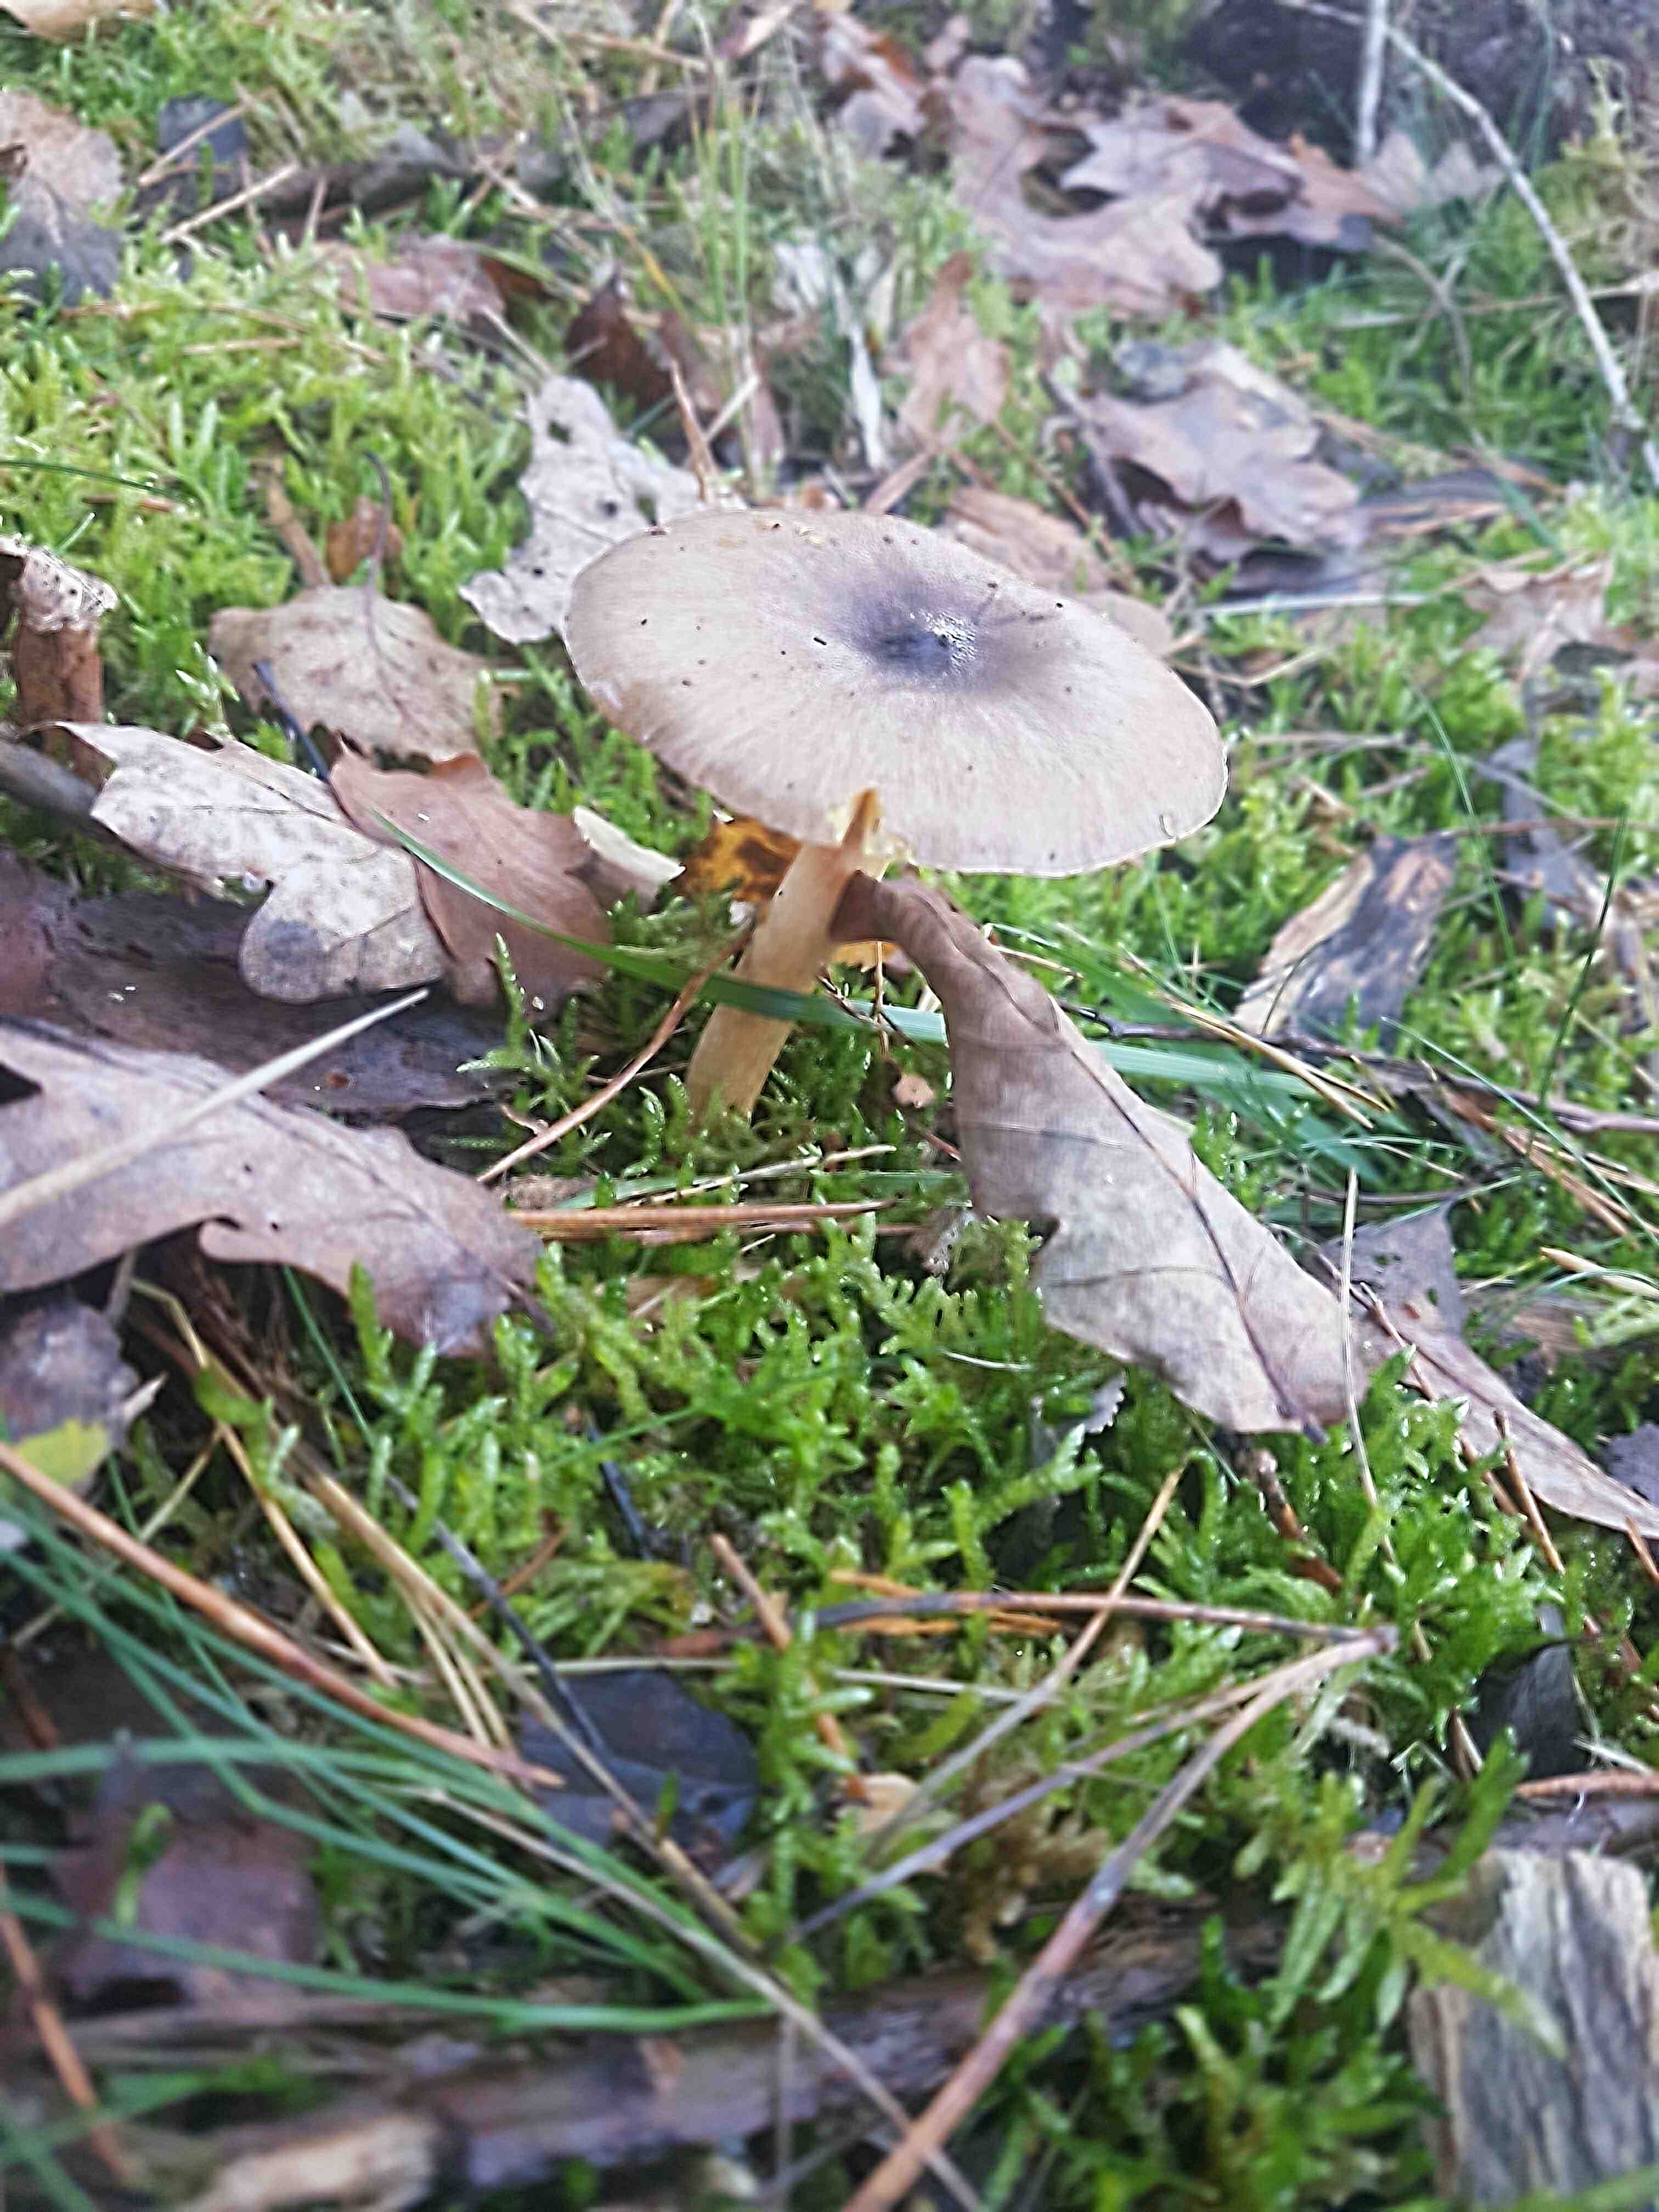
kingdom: Fungi
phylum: Basidiomycota
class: Agaricomycetes
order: Agaricales
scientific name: Agaricales
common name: champignonordenen
